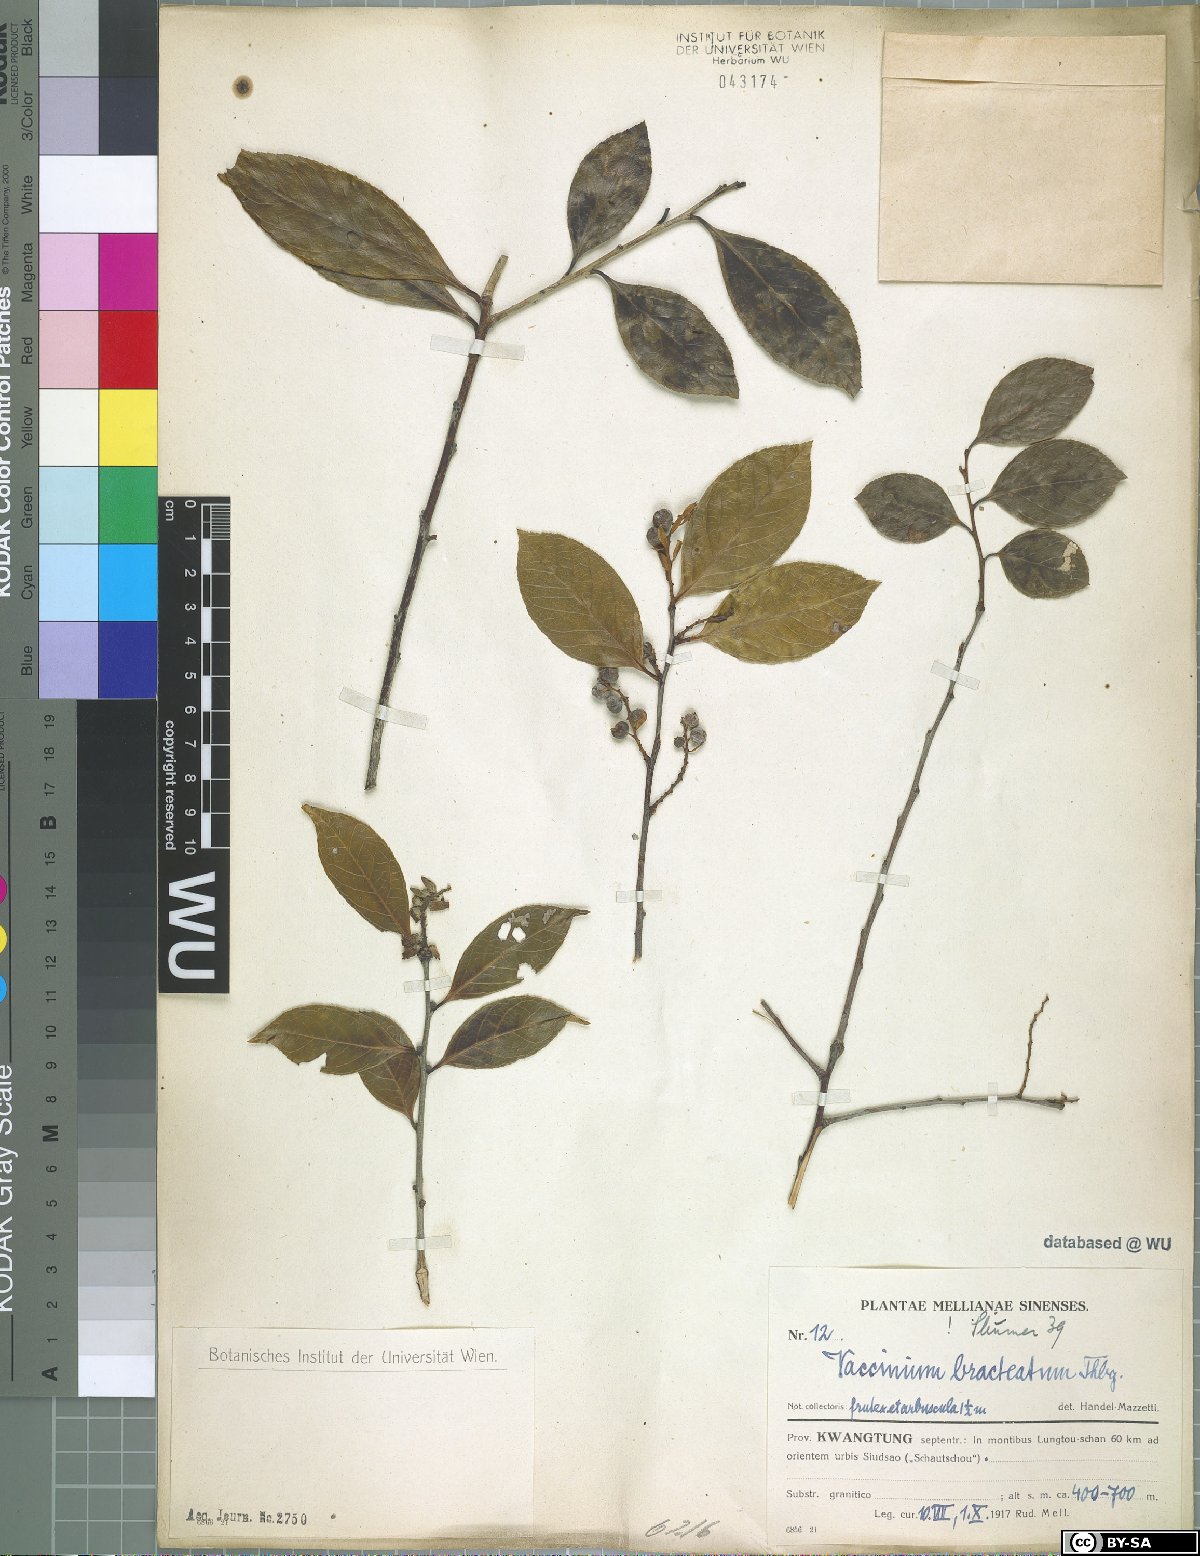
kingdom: Plantae
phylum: Tracheophyta
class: Magnoliopsida
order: Ericales
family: Ericaceae
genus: Vaccinium
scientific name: Vaccinium bracteatum
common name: Sea bilberry
